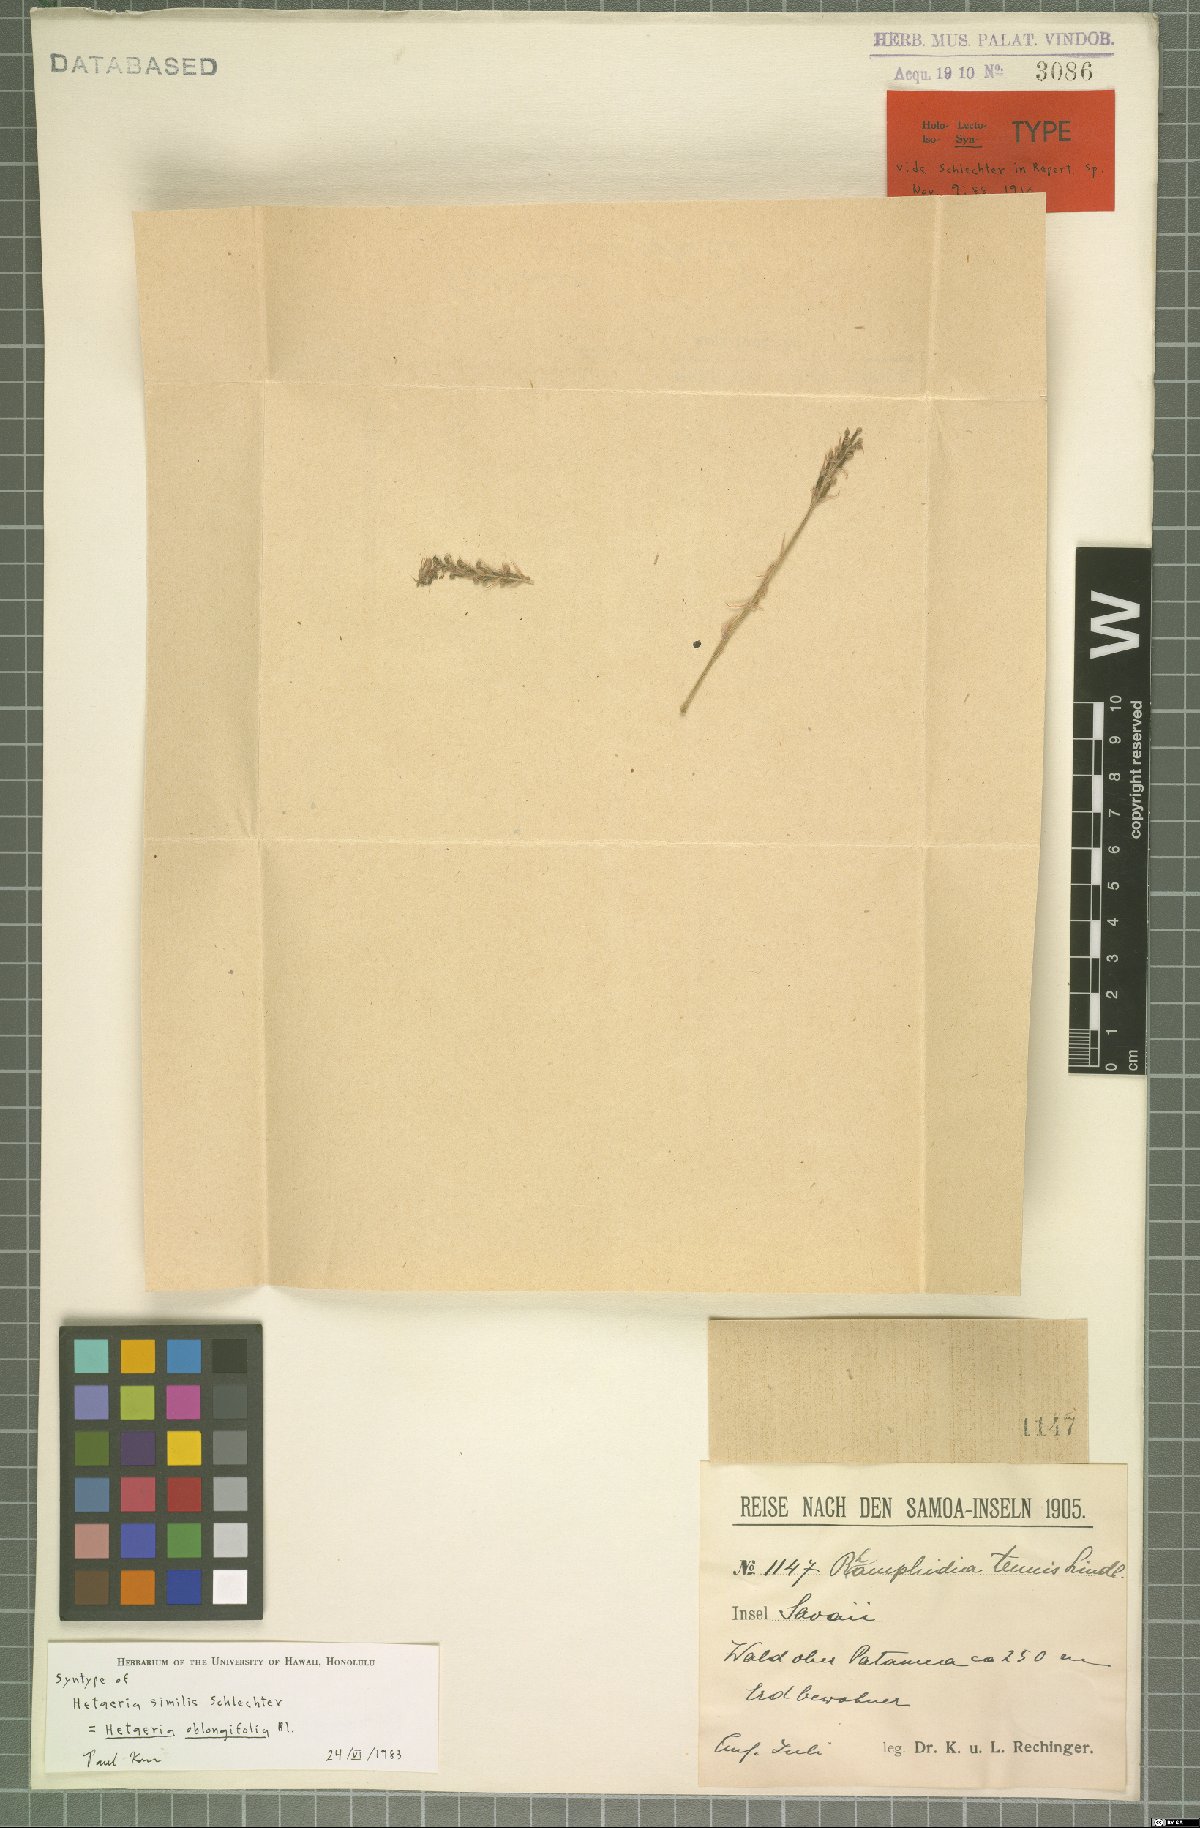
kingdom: Plantae
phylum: Tracheophyta
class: Liliopsida
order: Asparagales
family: Orchidaceae
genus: Hetaeria
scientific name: Hetaeria oblongifolia
